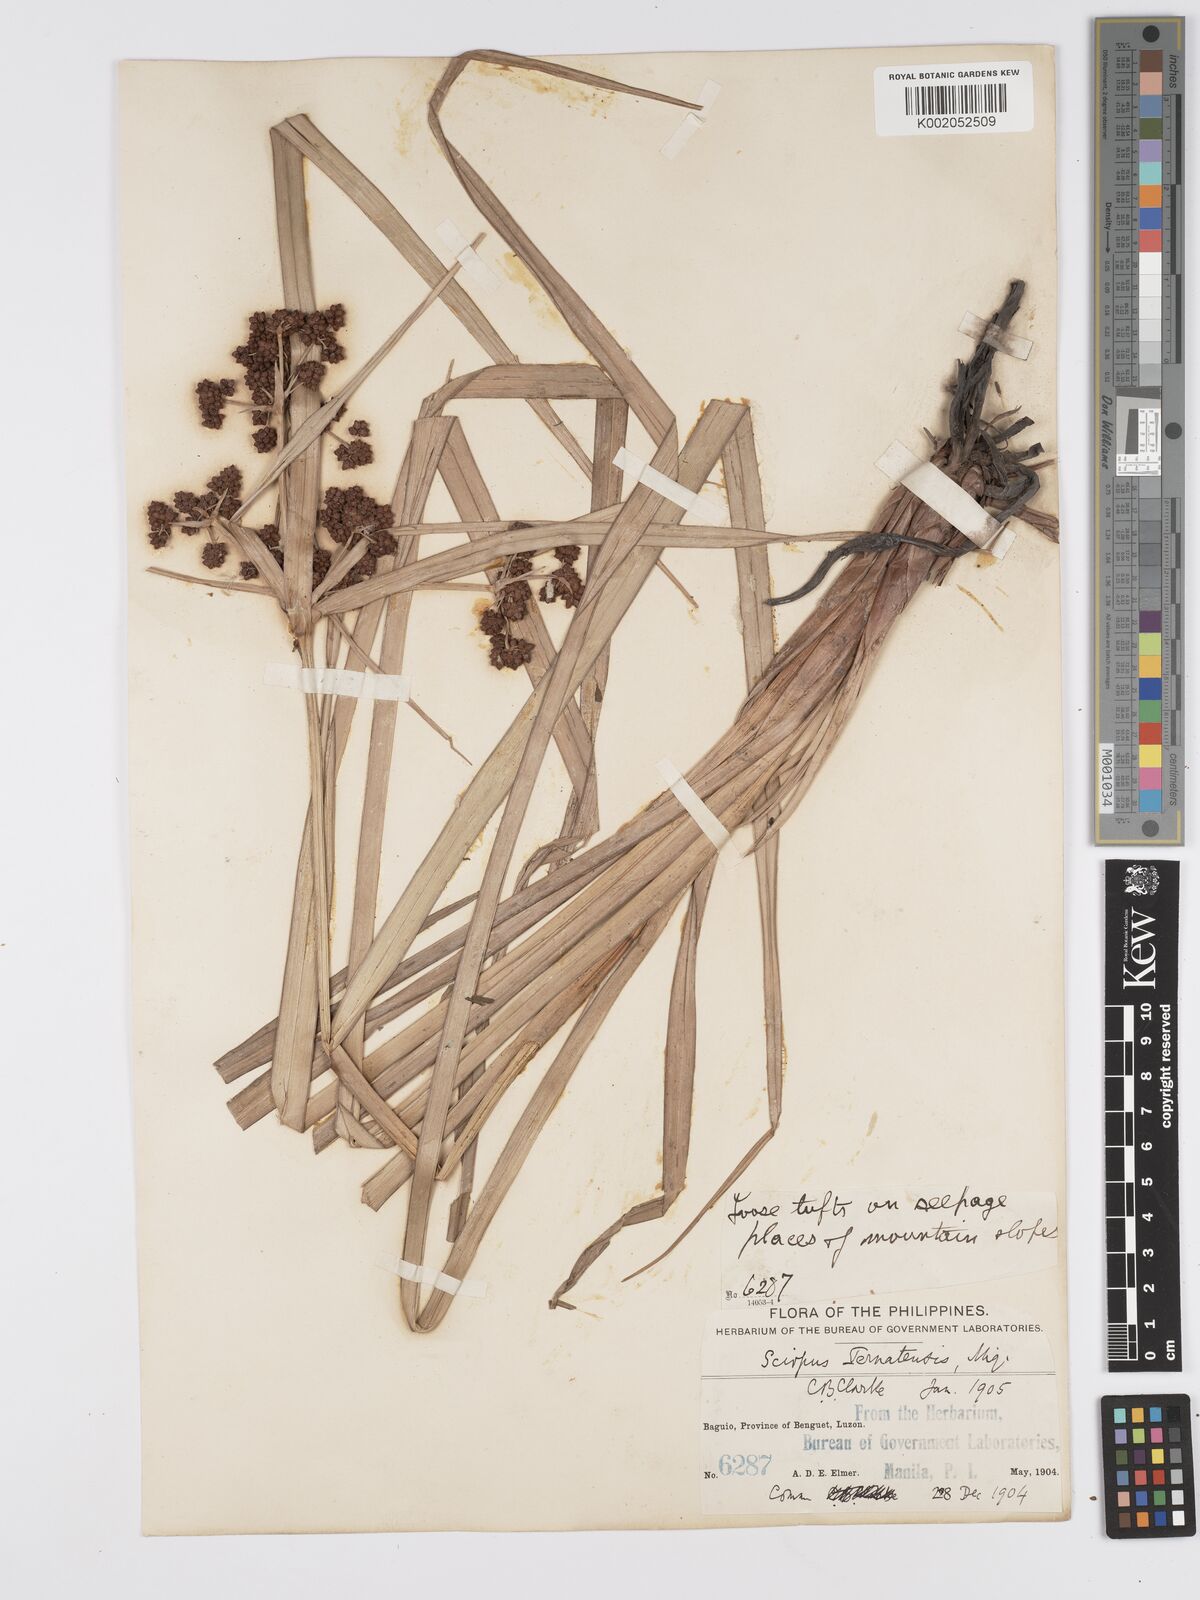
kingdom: Plantae
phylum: Tracheophyta
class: Liliopsida
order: Poales
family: Cyperaceae
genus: Scirpus
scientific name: Scirpus ternatanus
